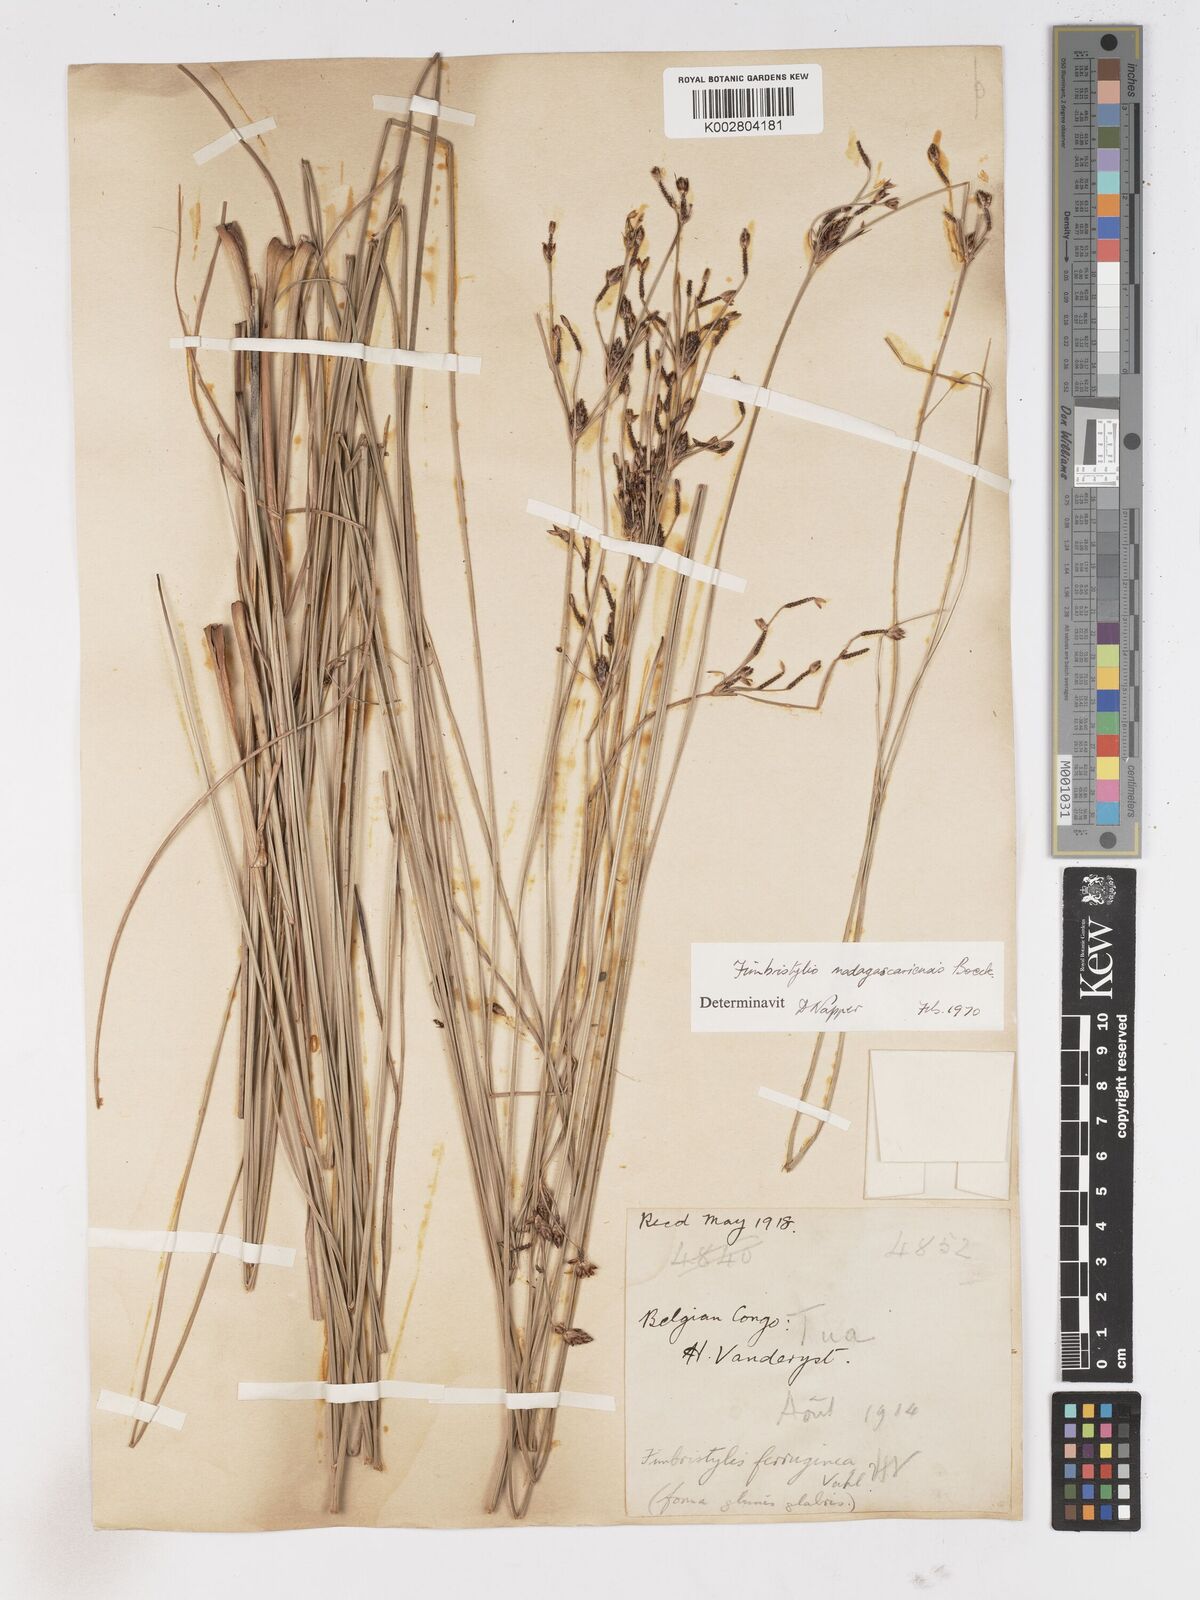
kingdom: Plantae
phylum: Tracheophyta
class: Liliopsida
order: Poales
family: Cyperaceae
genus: Fimbristylis
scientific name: Fimbristylis madagascariensis
